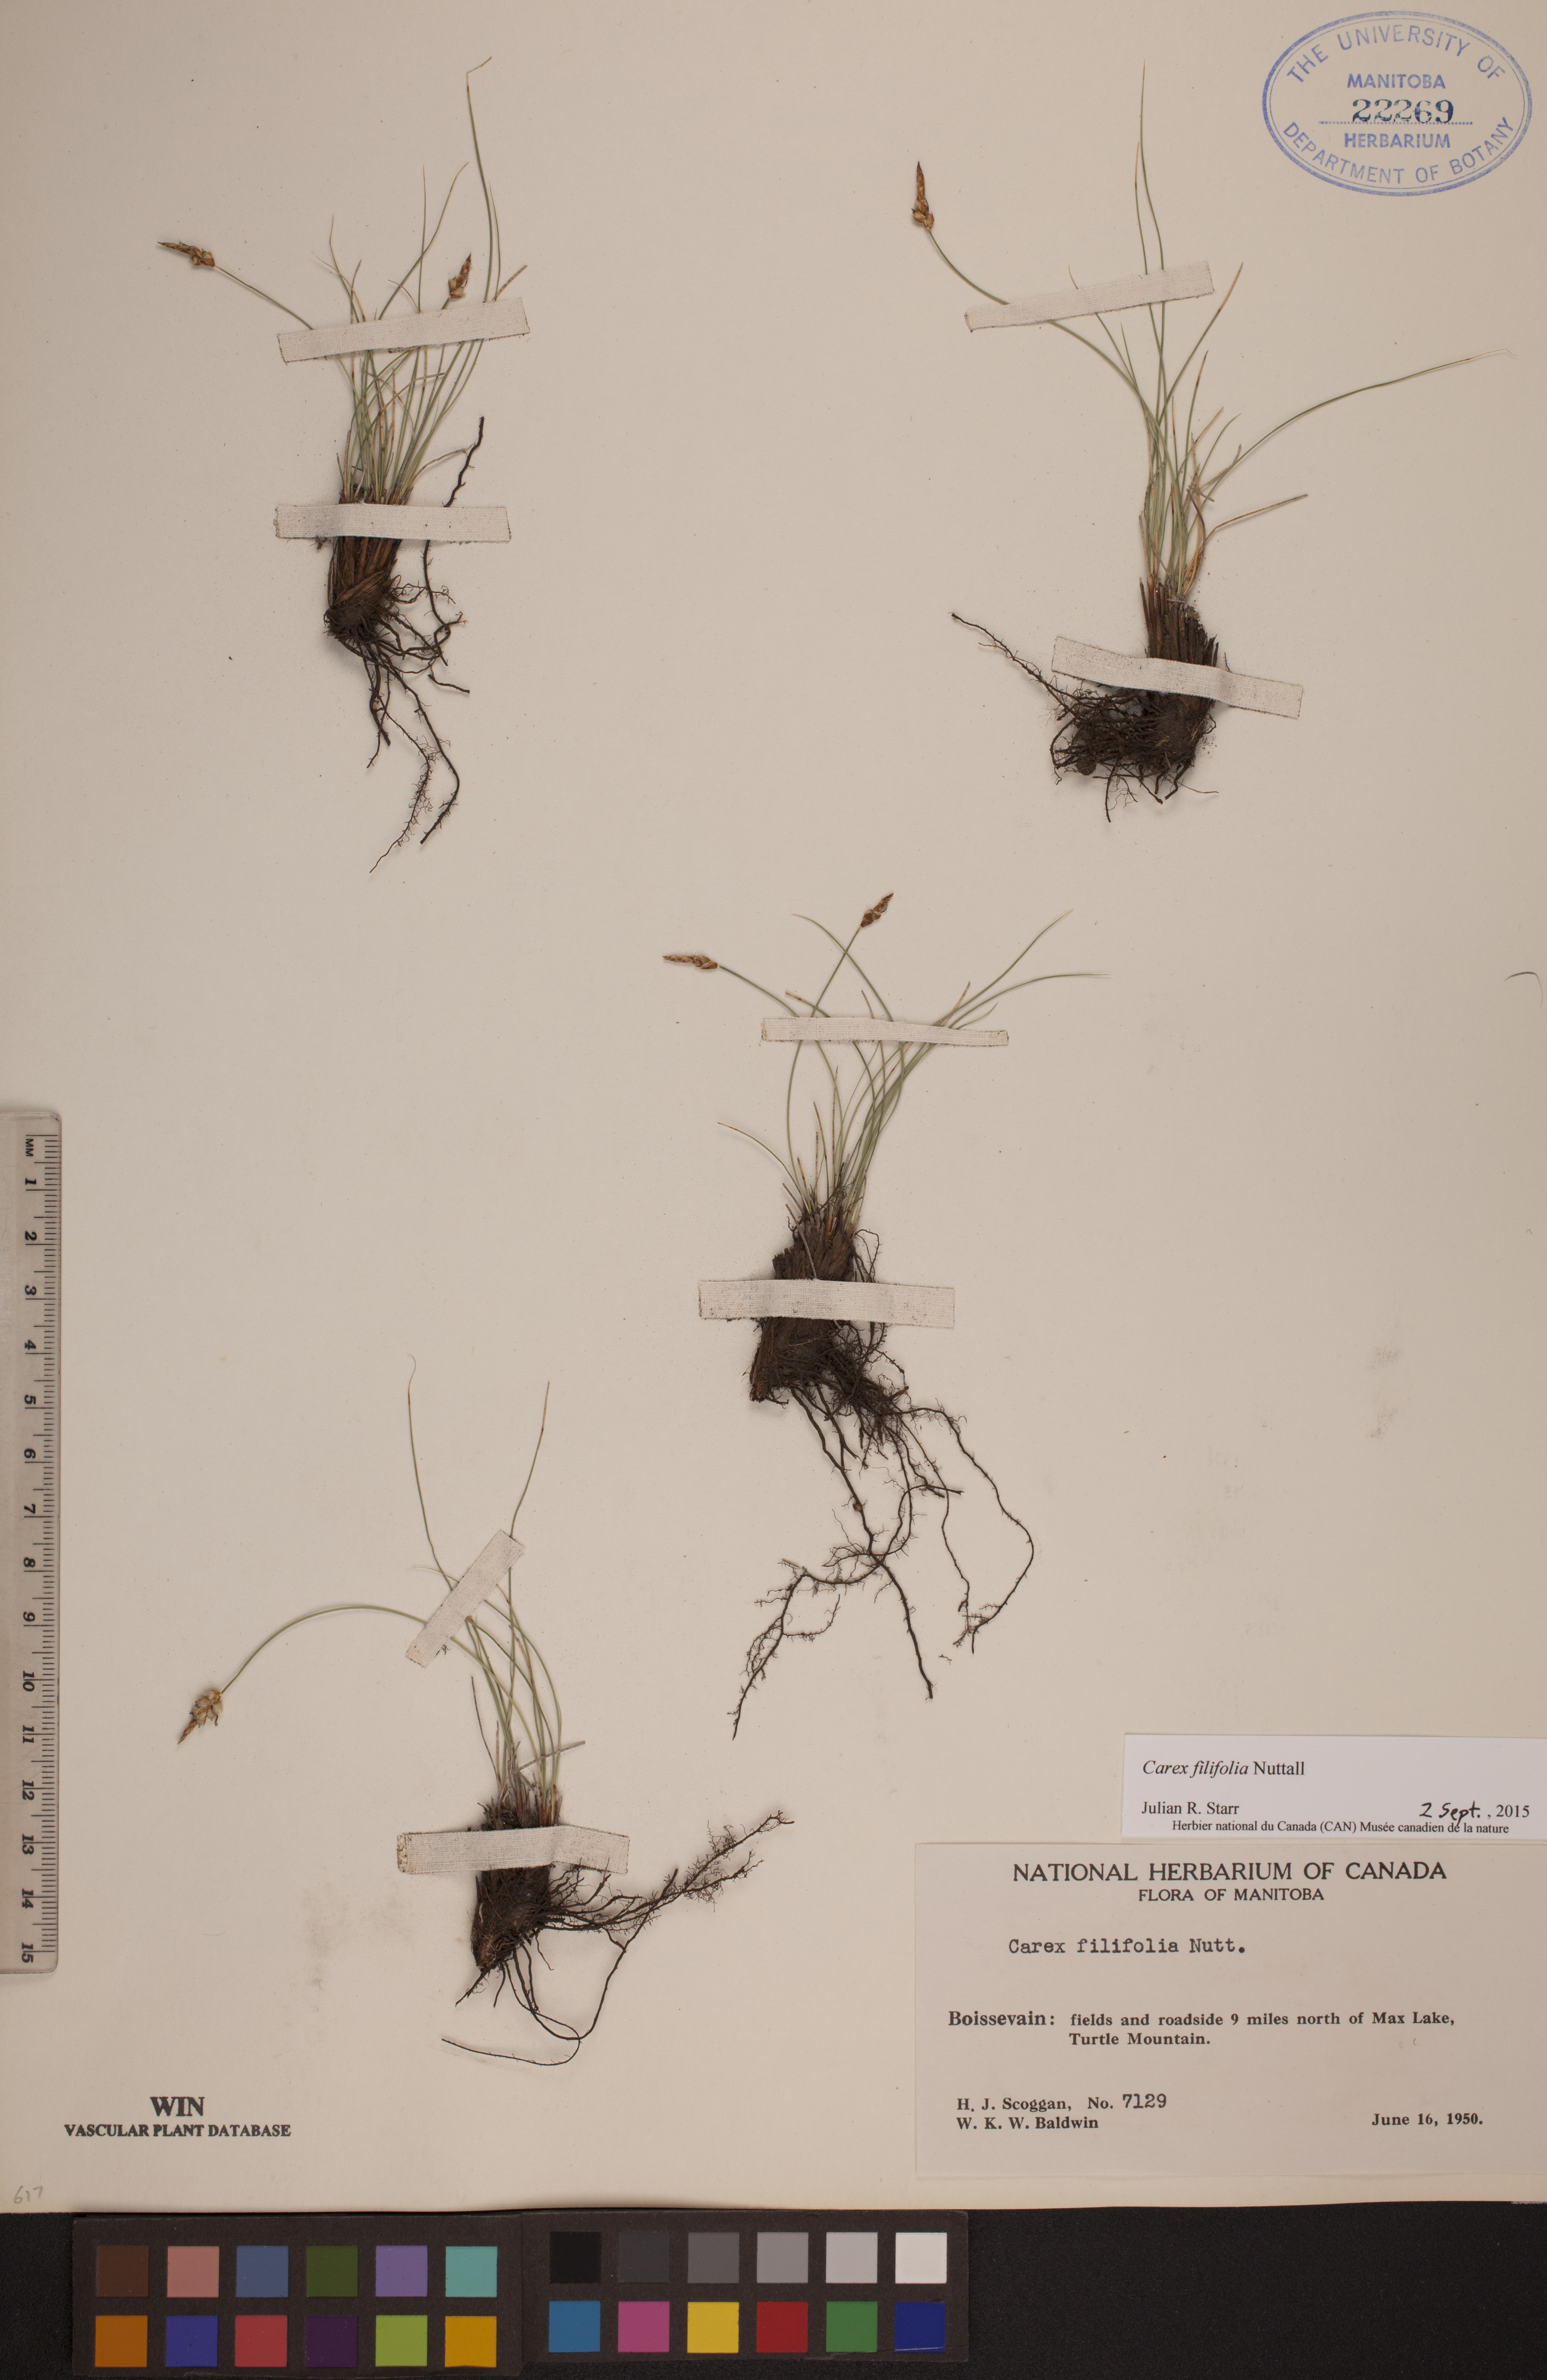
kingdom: Plantae
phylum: Tracheophyta
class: Liliopsida
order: Poales
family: Cyperaceae
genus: Carex
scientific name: Carex filifolia
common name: Threadleaf sedge
